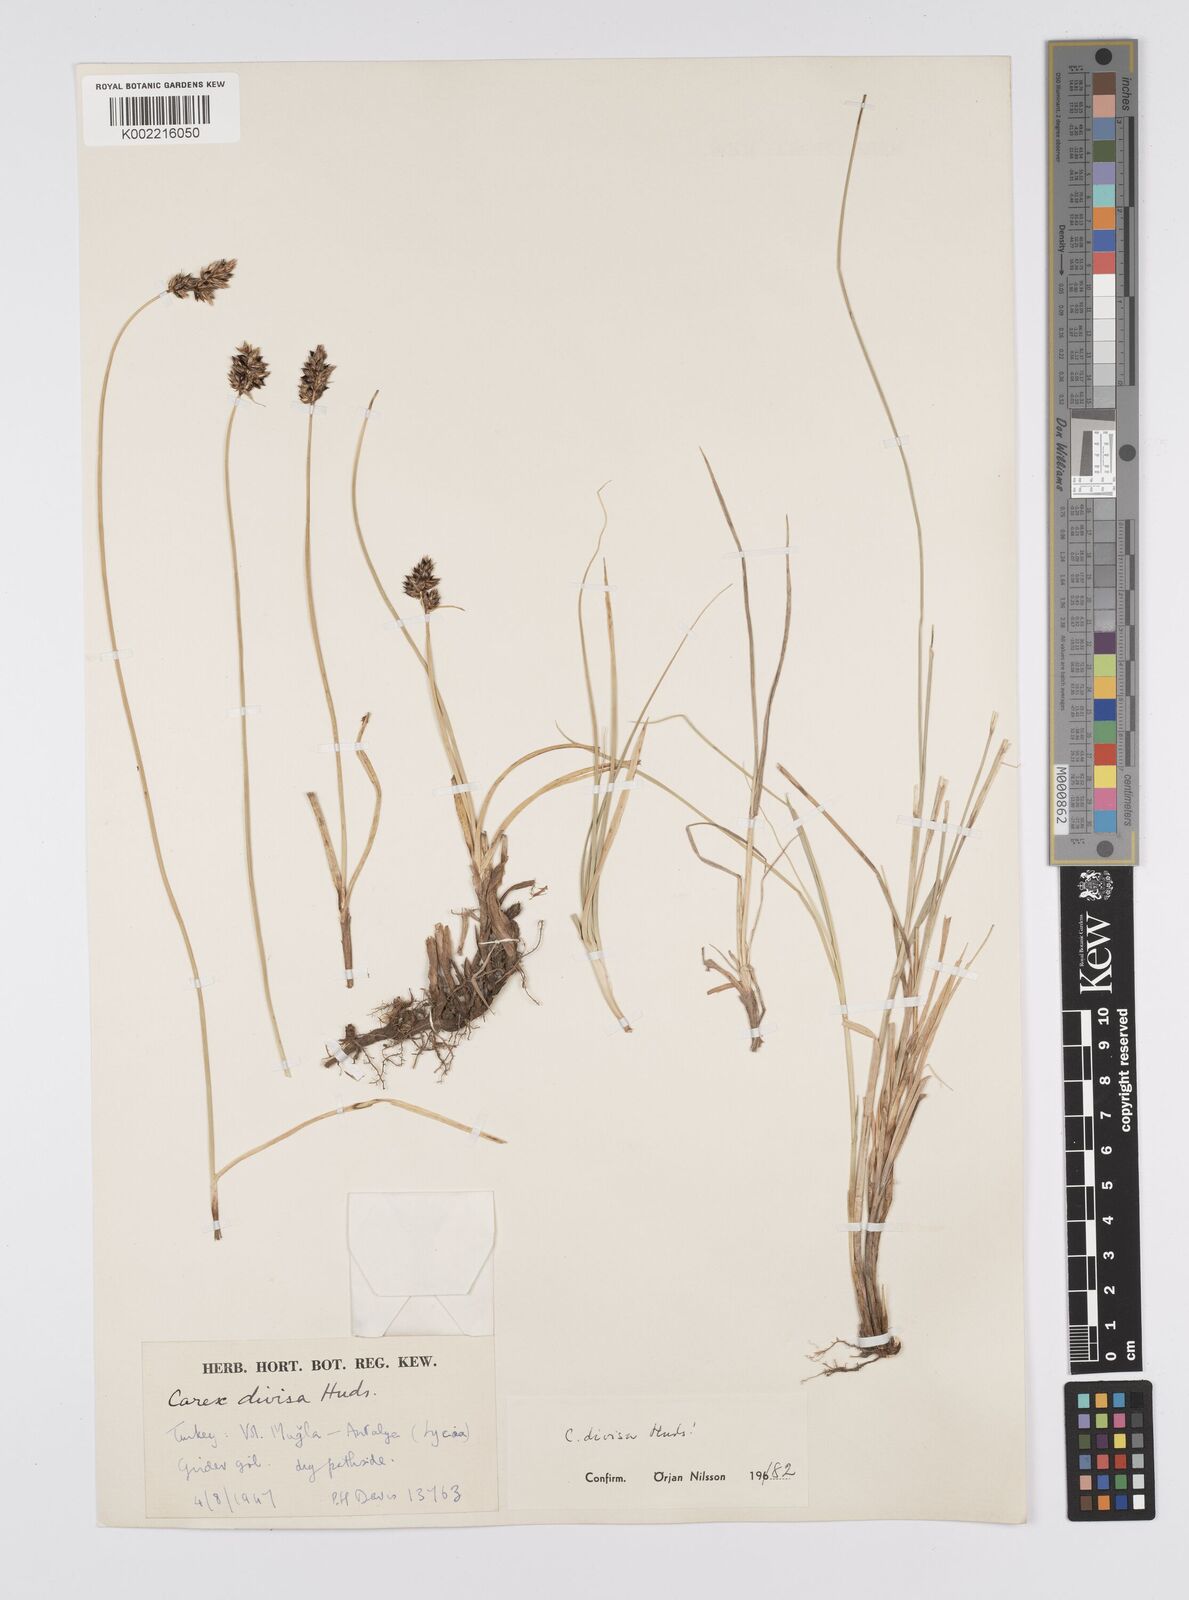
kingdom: Plantae
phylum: Tracheophyta
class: Liliopsida
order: Poales
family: Cyperaceae
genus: Carex
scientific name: Carex divisa
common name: Divided sedge
